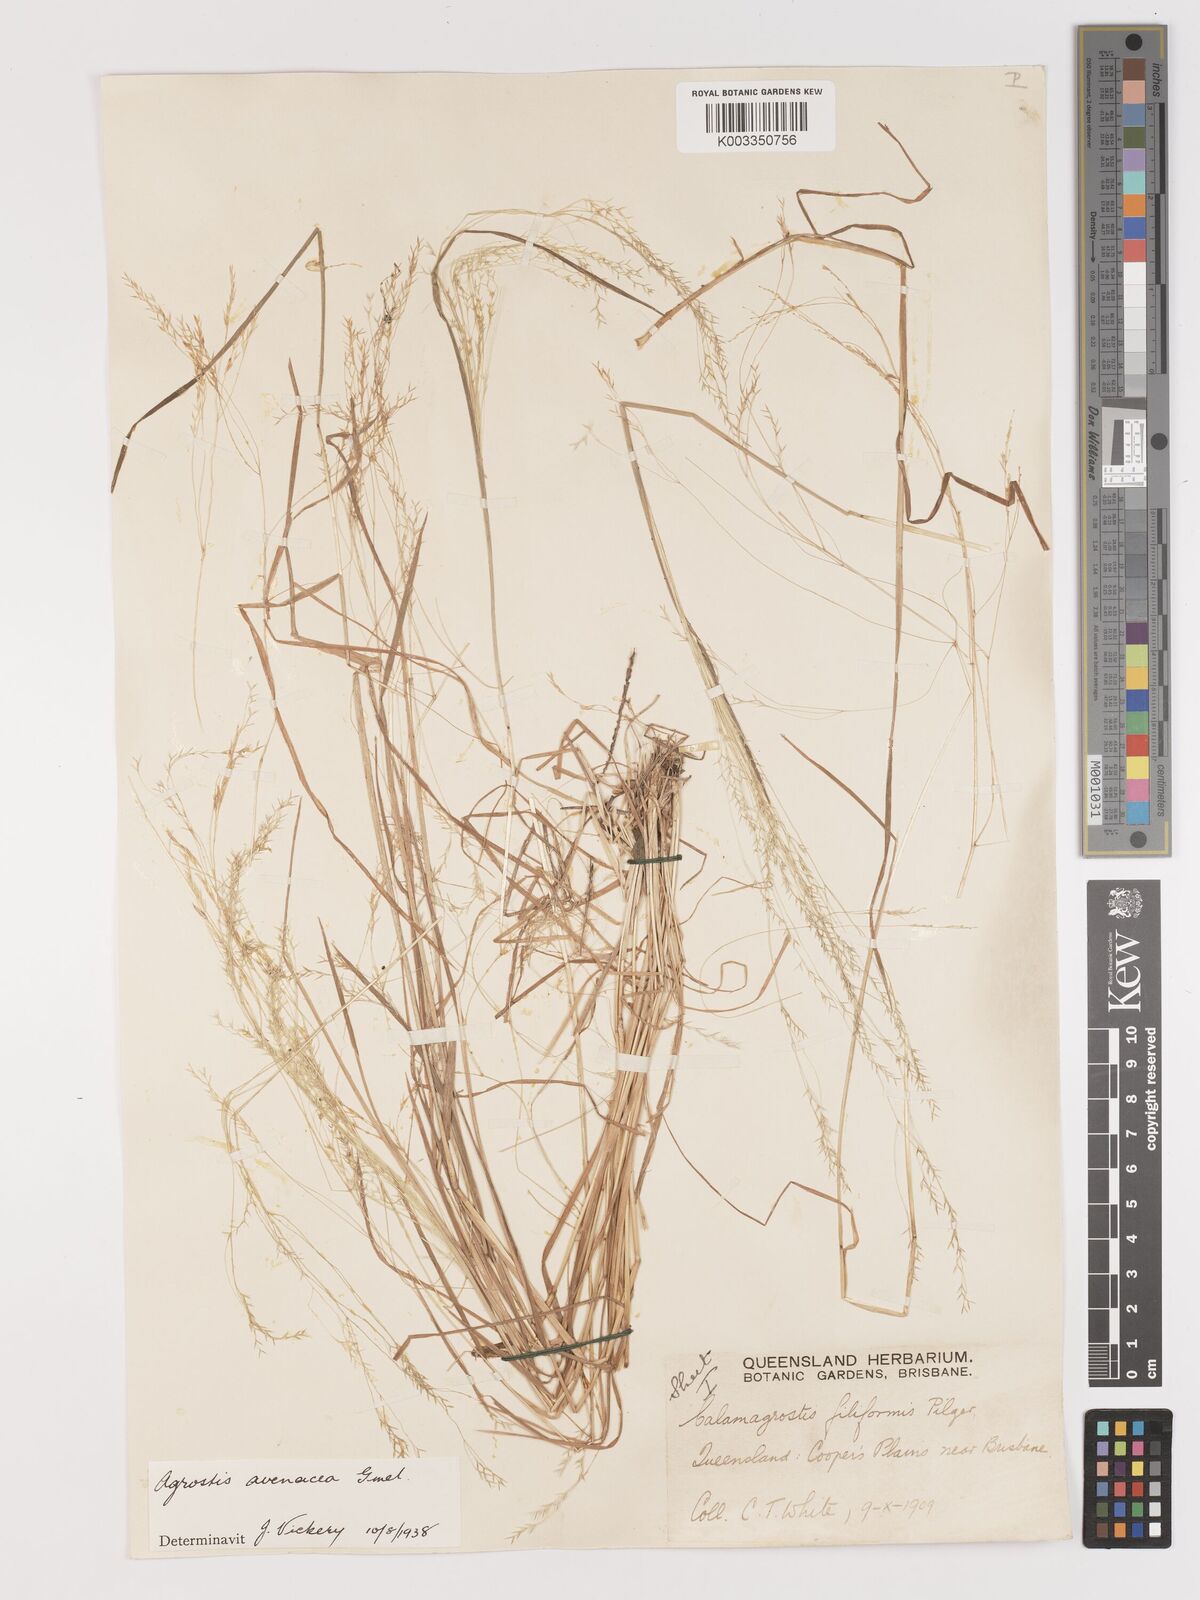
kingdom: Plantae
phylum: Tracheophyta
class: Liliopsida
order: Poales
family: Poaceae
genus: Lachnagrostis
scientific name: Lachnagrostis filiformis
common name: Bentgrass
